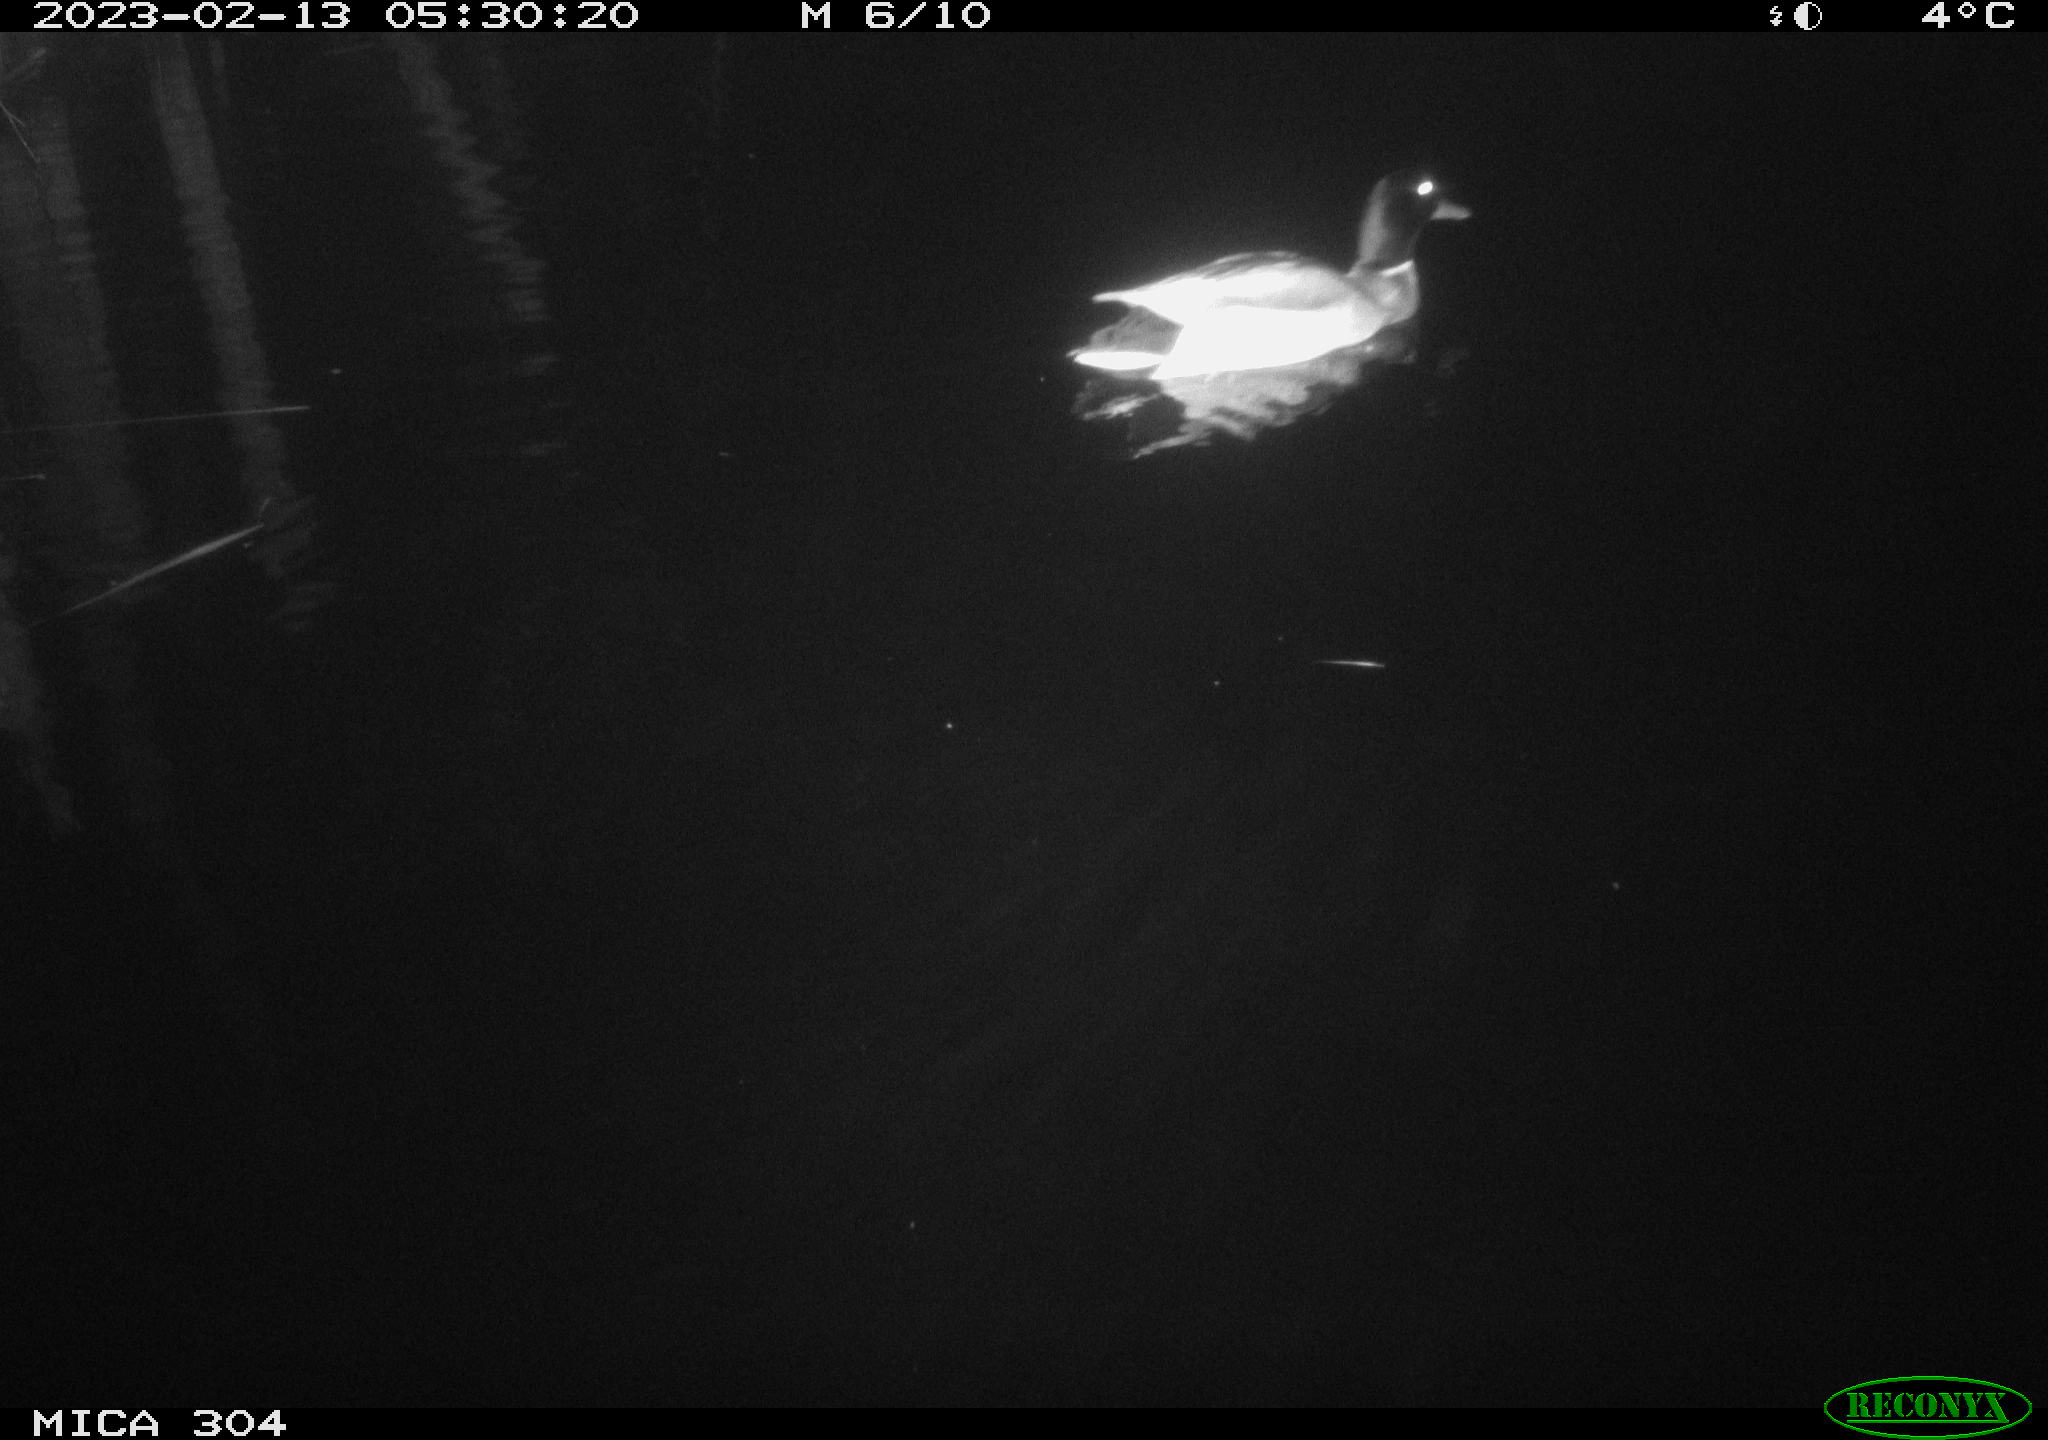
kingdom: Animalia
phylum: Chordata
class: Aves
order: Anseriformes
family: Anatidae
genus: Anas
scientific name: Anas
